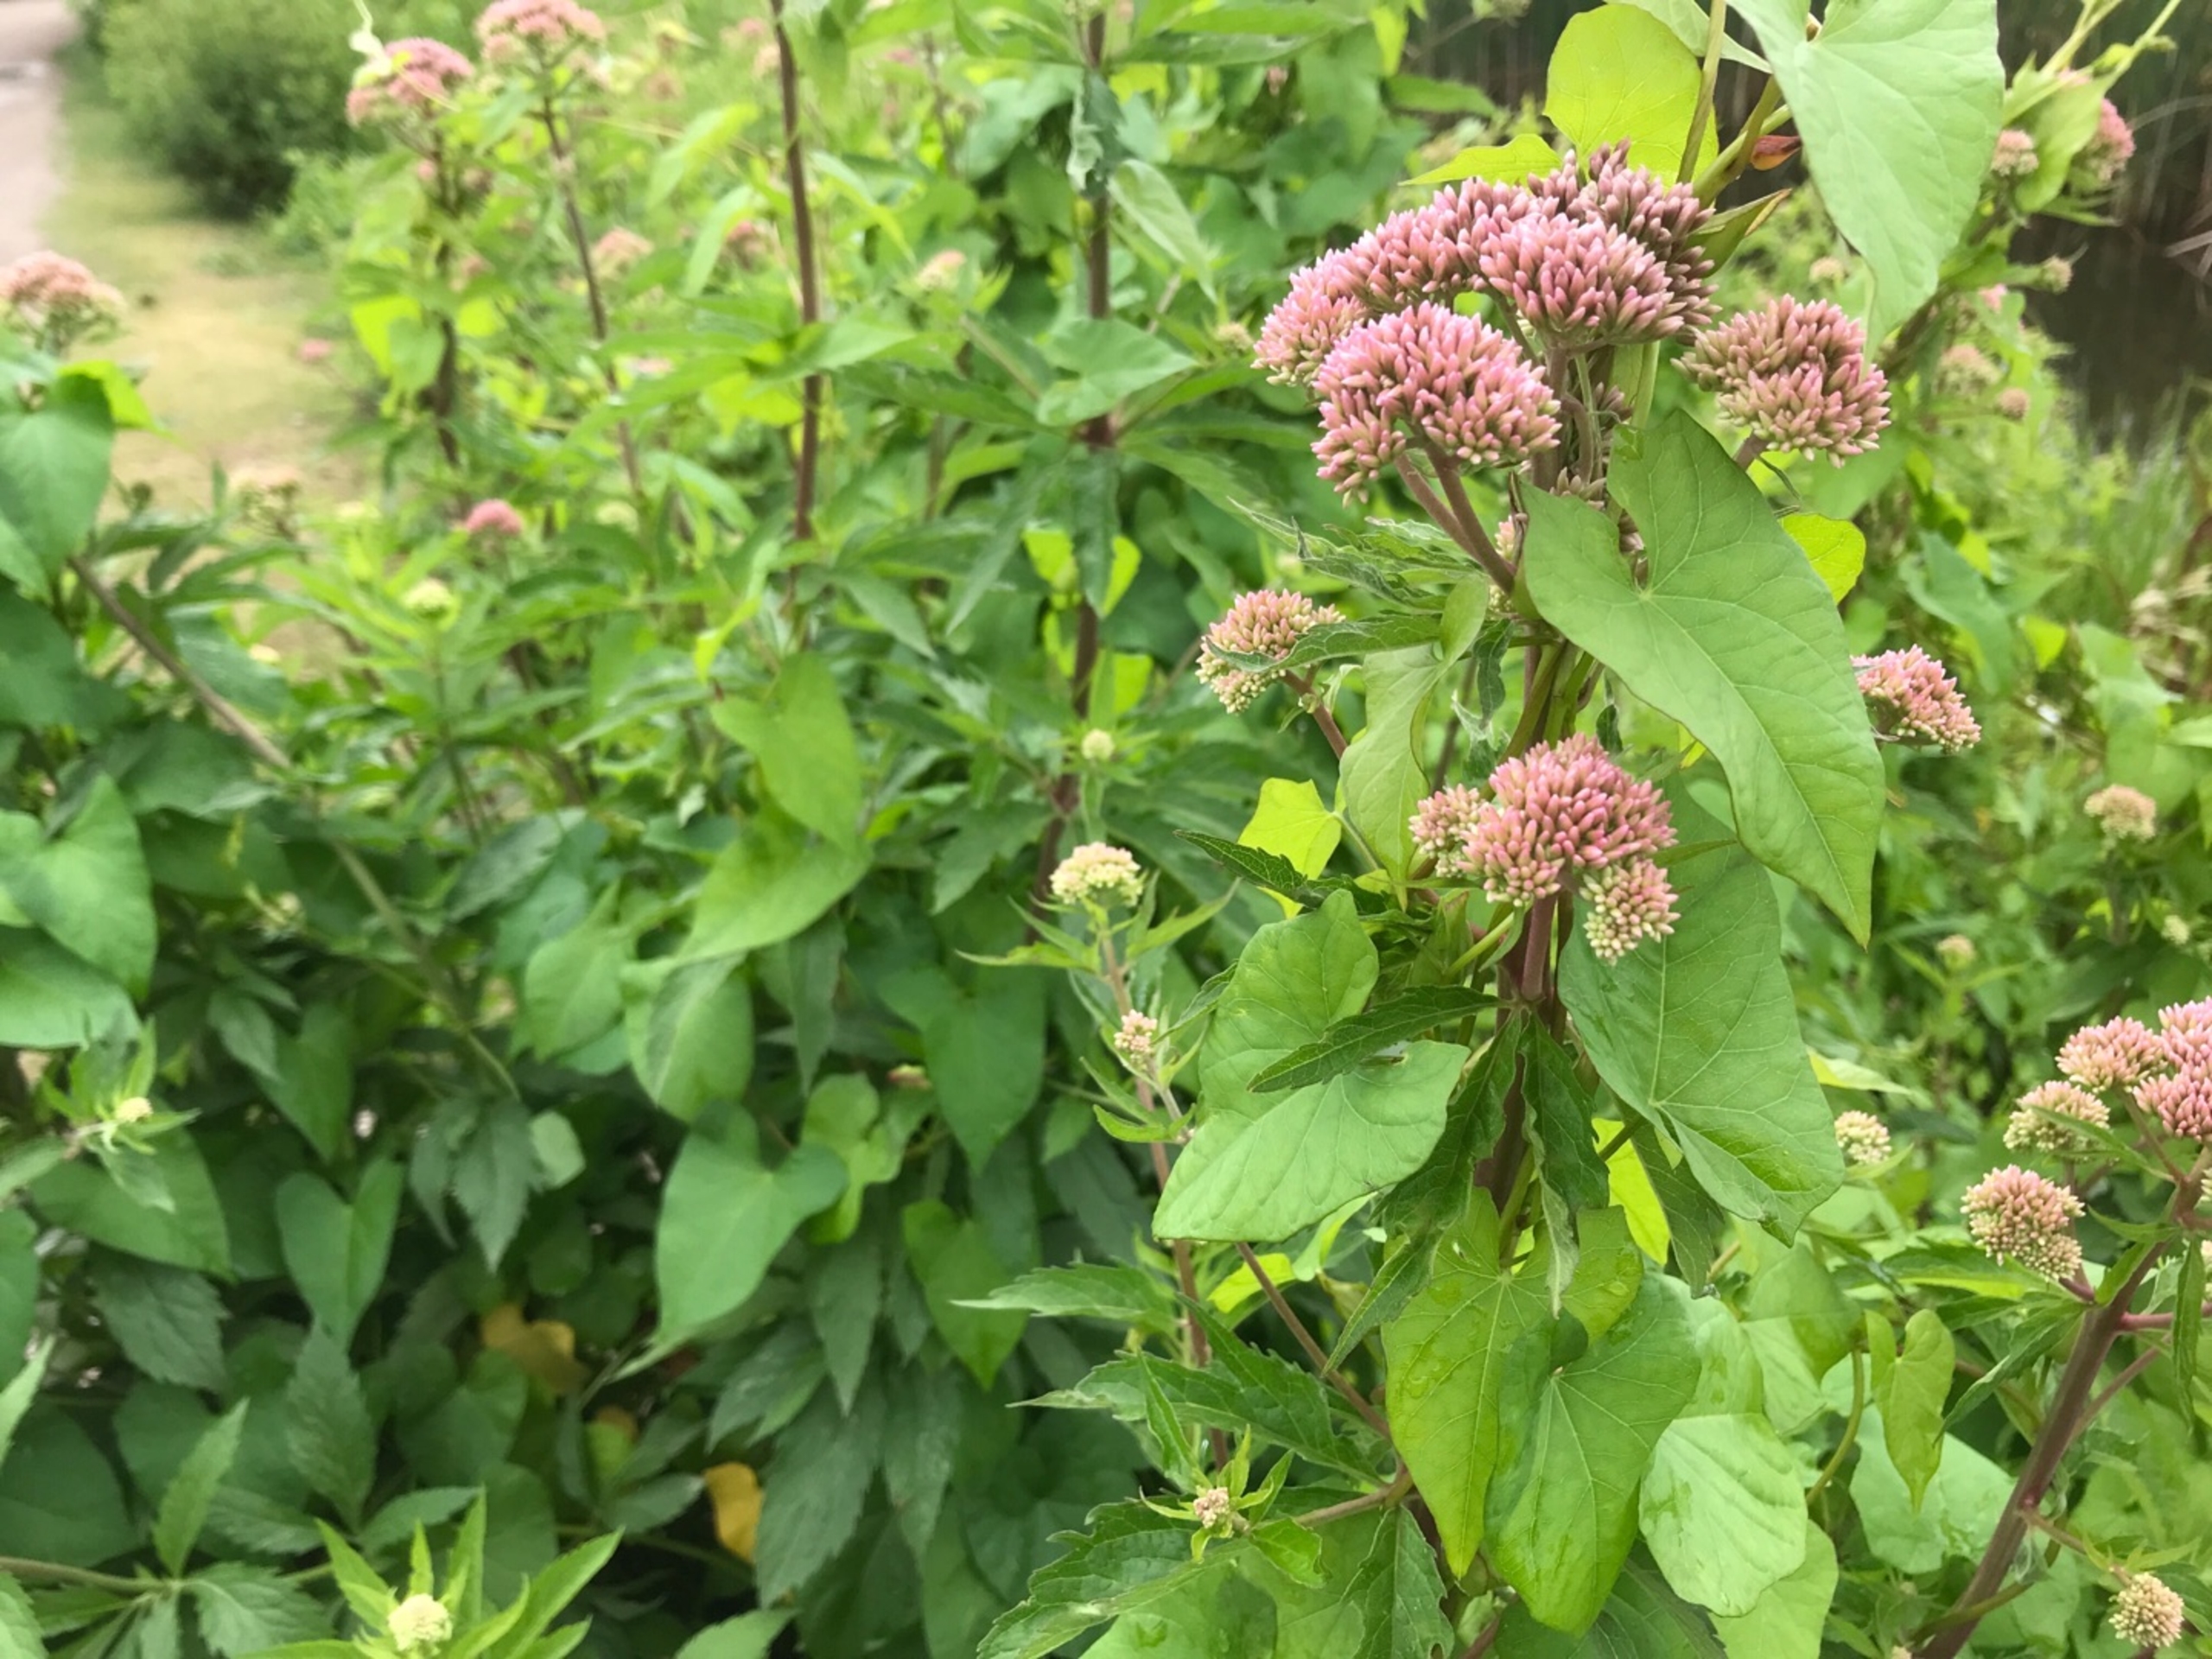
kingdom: Plantae
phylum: Tracheophyta
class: Magnoliopsida
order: Asterales
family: Asteraceae
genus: Eupatorium
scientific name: Eupatorium cannabinum
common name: Hjortetrøst
